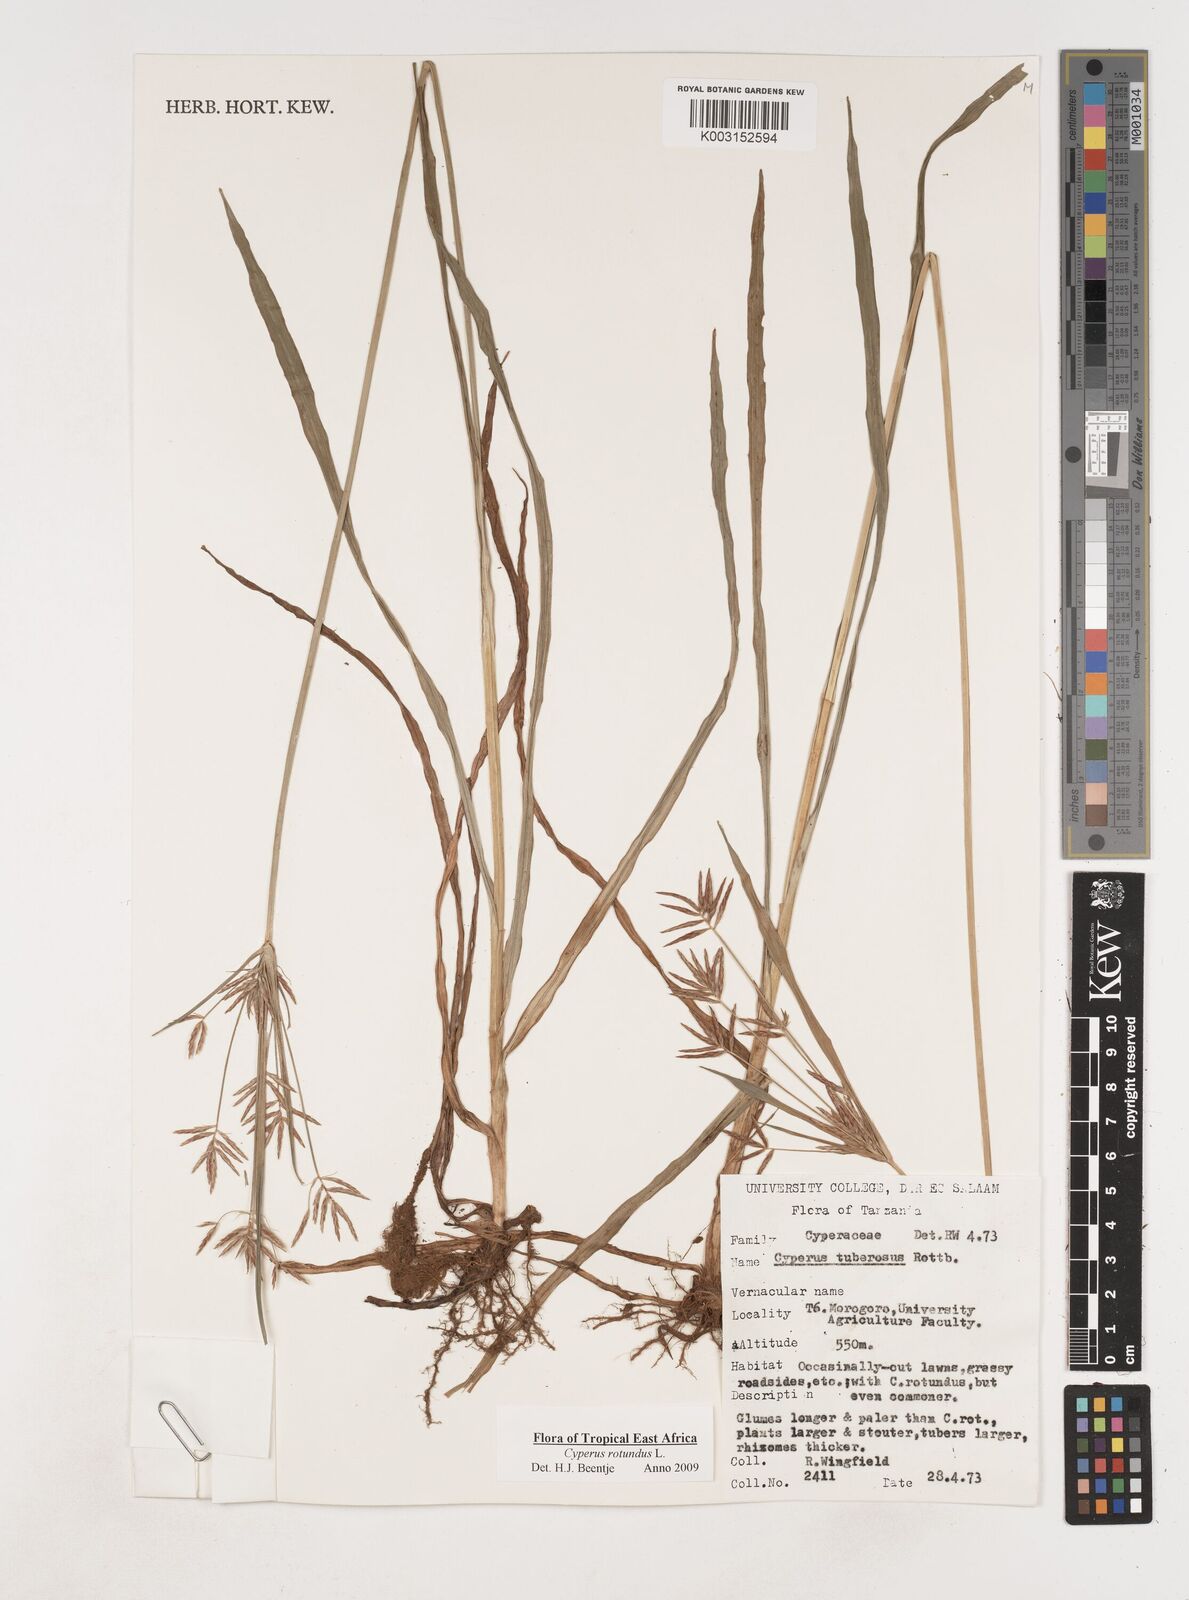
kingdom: Plantae
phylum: Tracheophyta
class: Liliopsida
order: Poales
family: Cyperaceae
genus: Cyperus
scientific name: Cyperus tuberosus
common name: Nut grass
